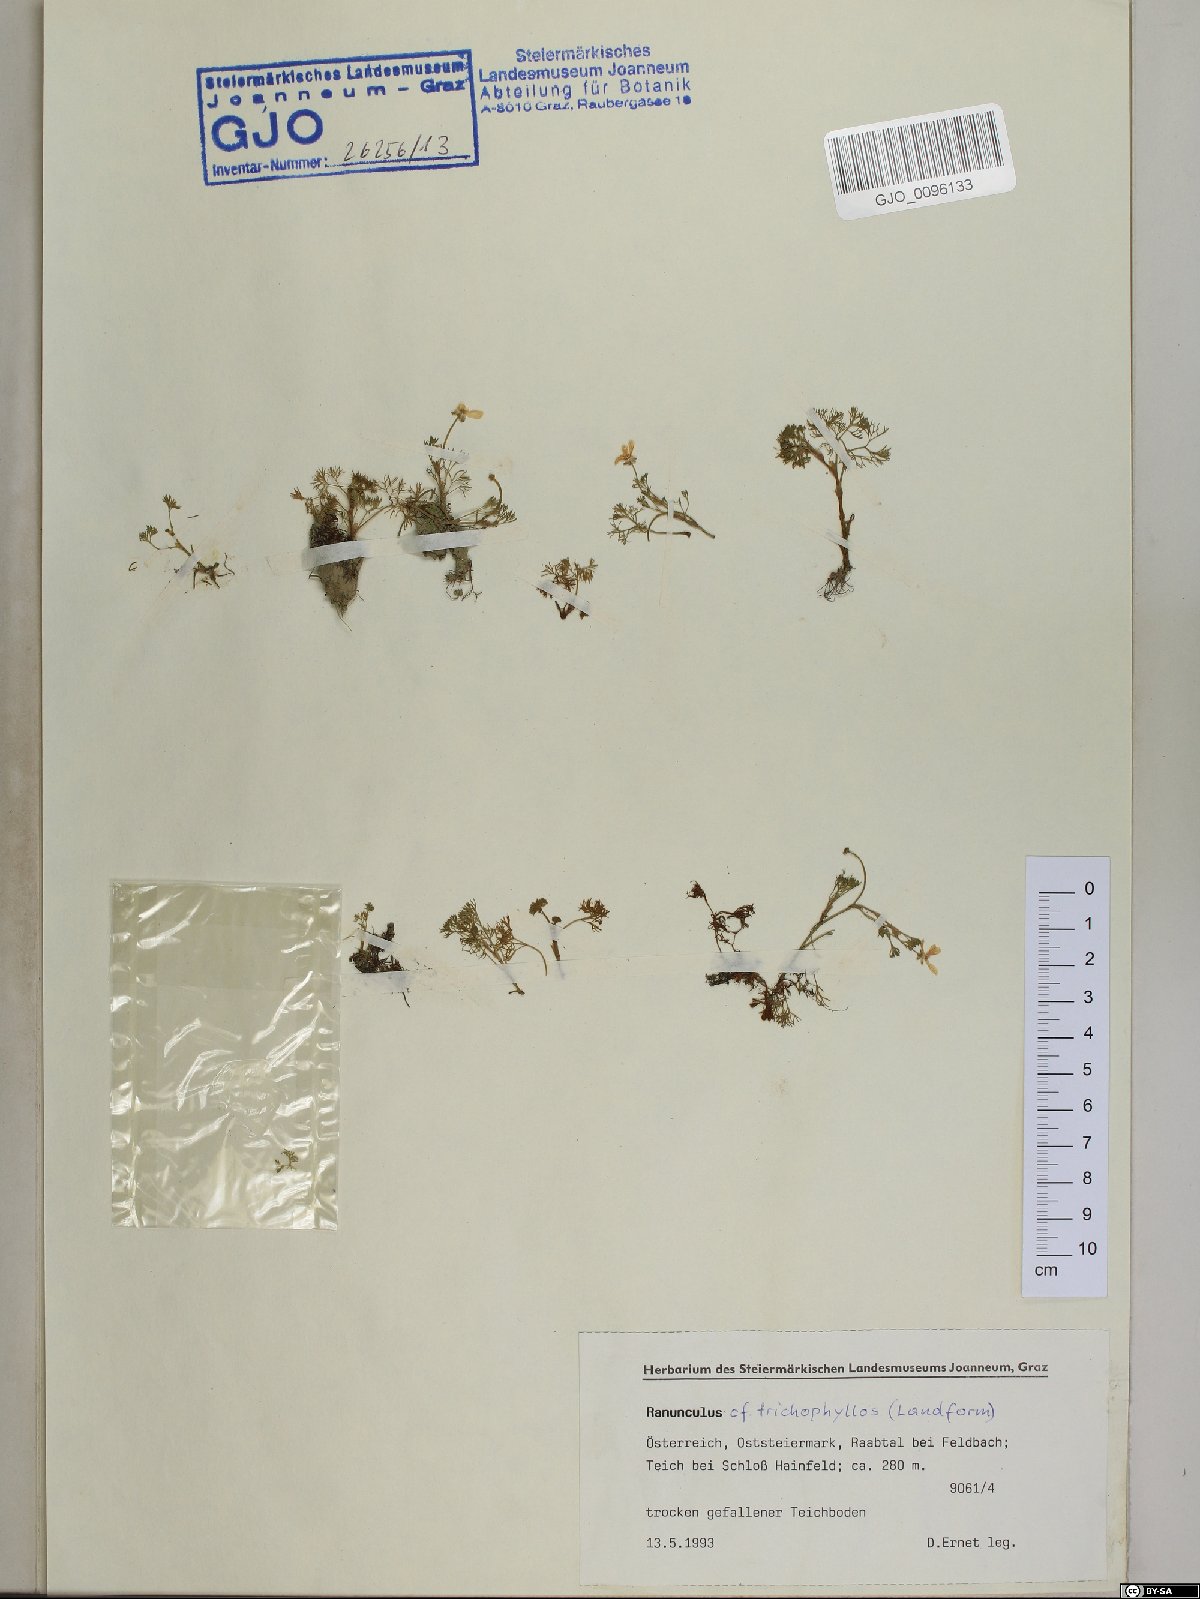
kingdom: Plantae
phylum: Tracheophyta
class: Magnoliopsida
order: Ranunculales
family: Ranunculaceae
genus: Ranunculus
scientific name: Ranunculus trichophyllus
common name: Thread-leaved water-crowfoot
